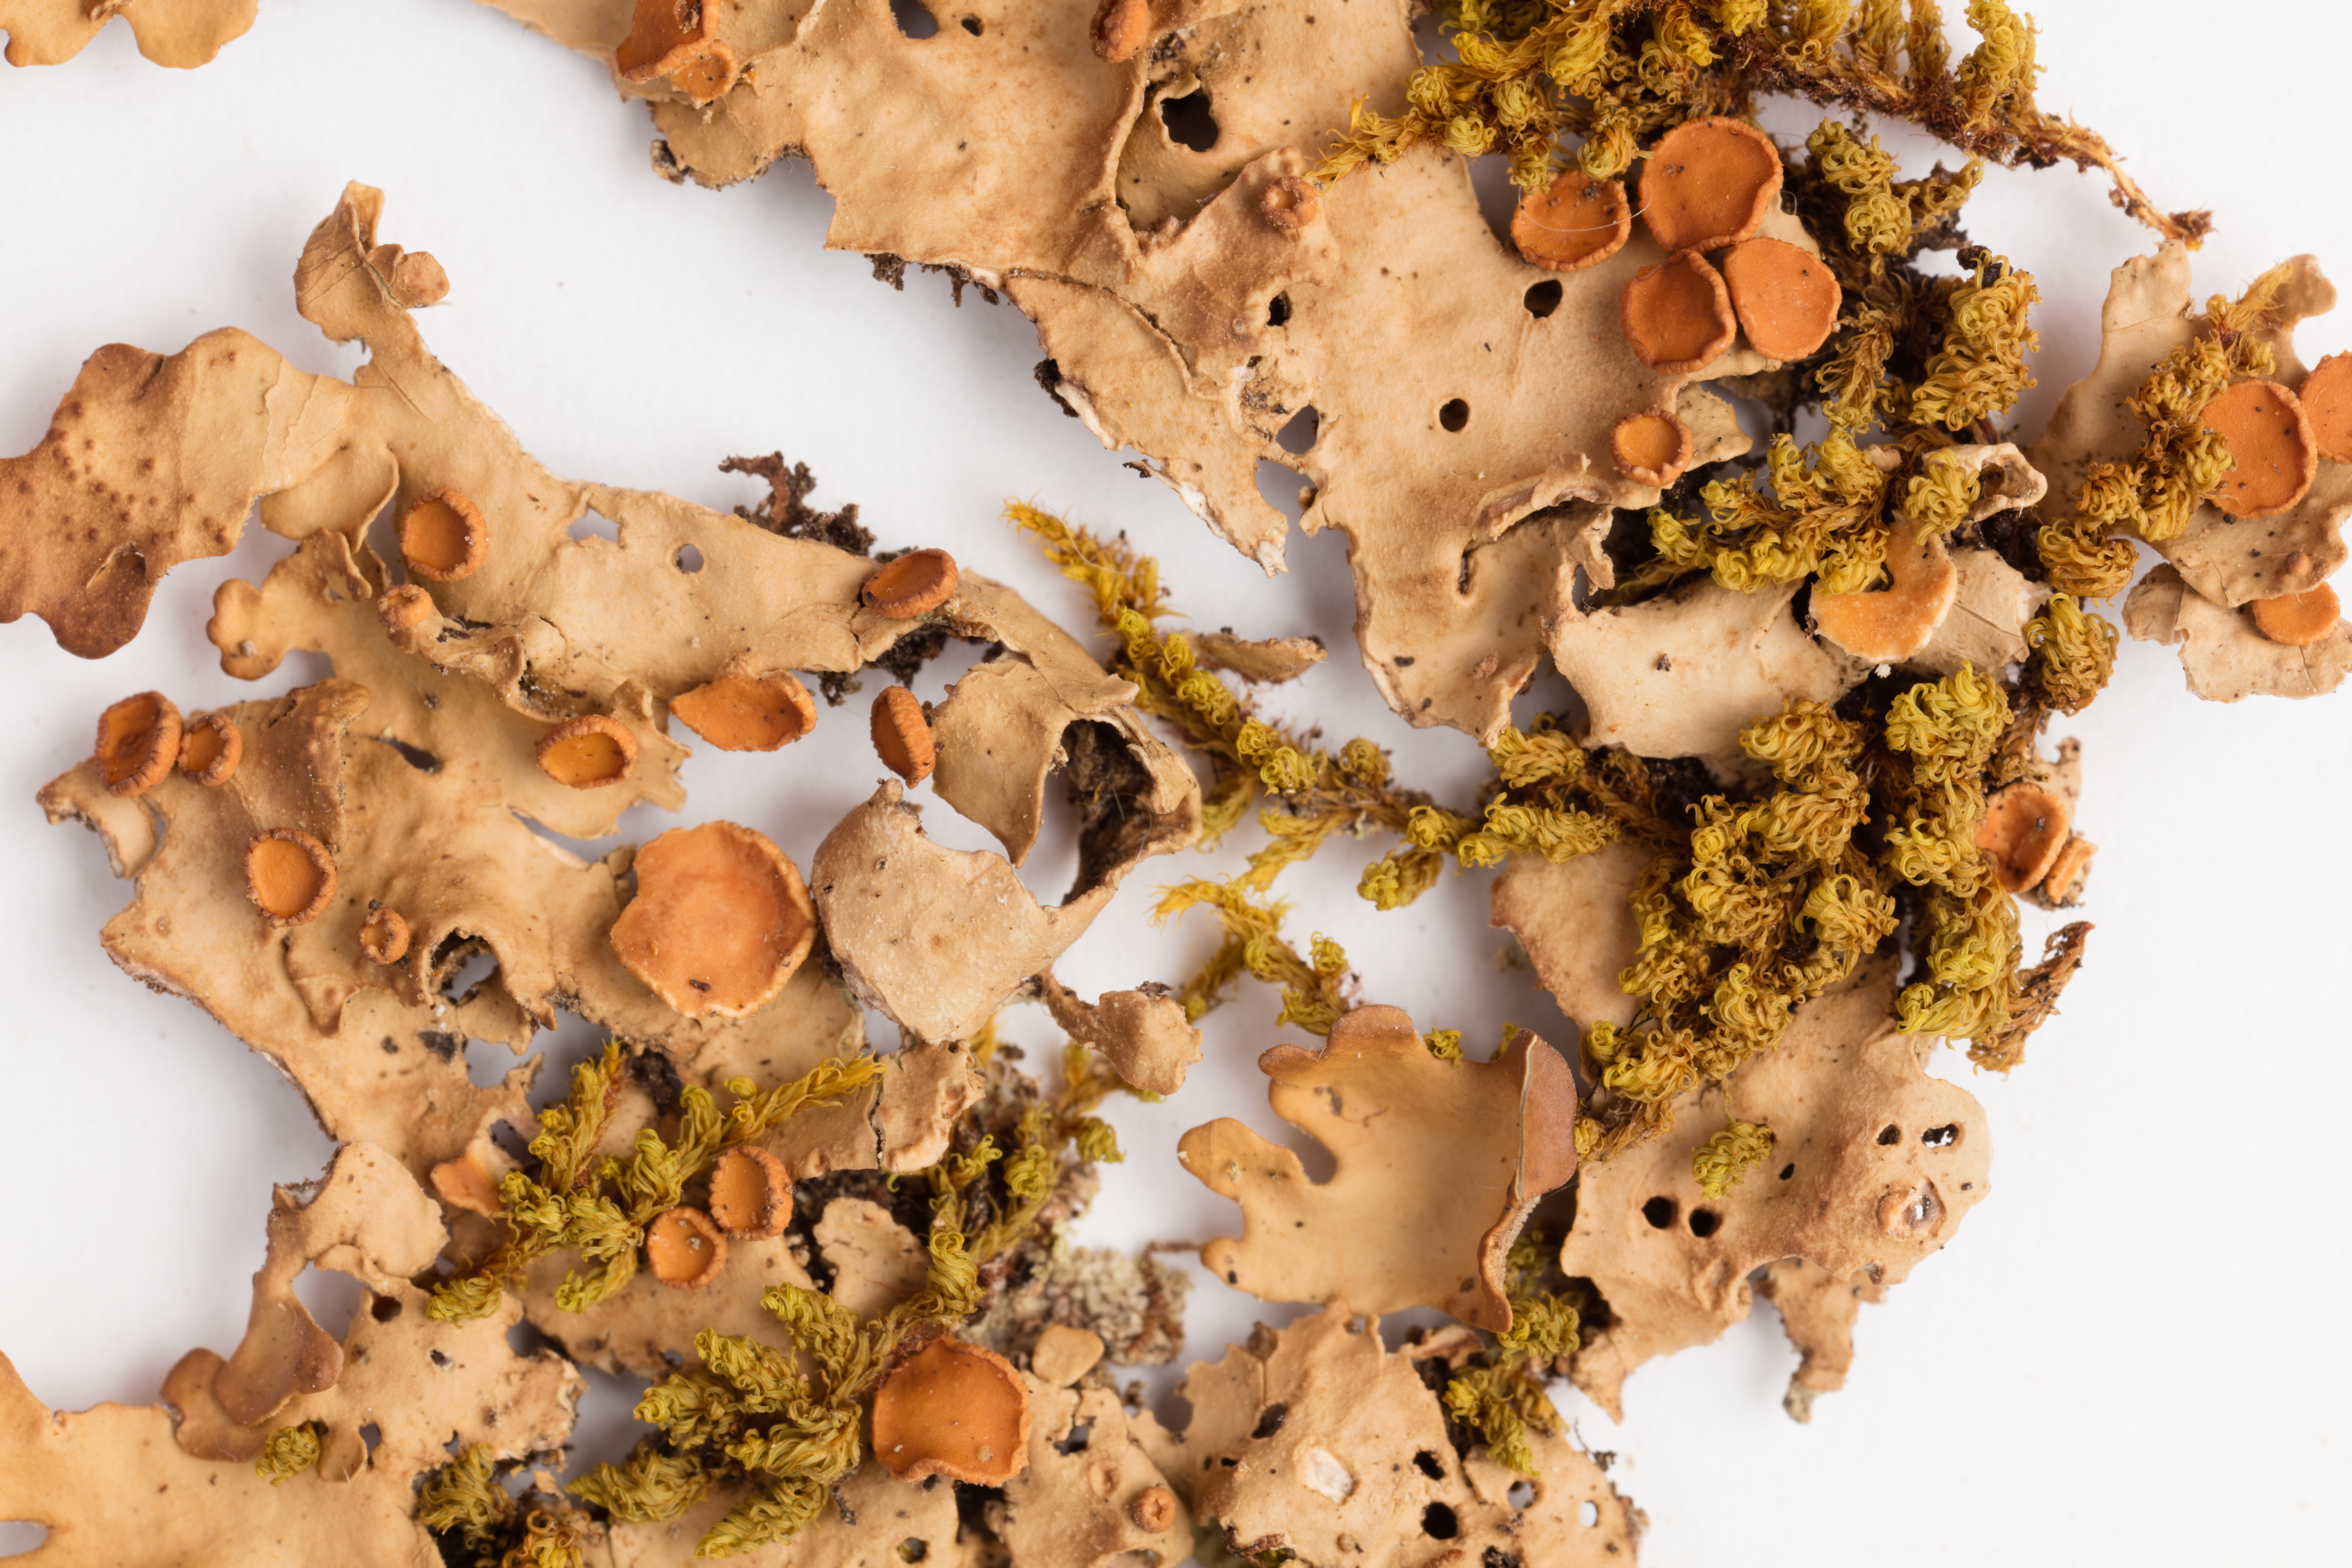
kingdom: Fungi
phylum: Ascomycota
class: Lecanoromycetes
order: Peltigerales
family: Lobariaceae
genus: Sticta
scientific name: Sticta subcaperata
